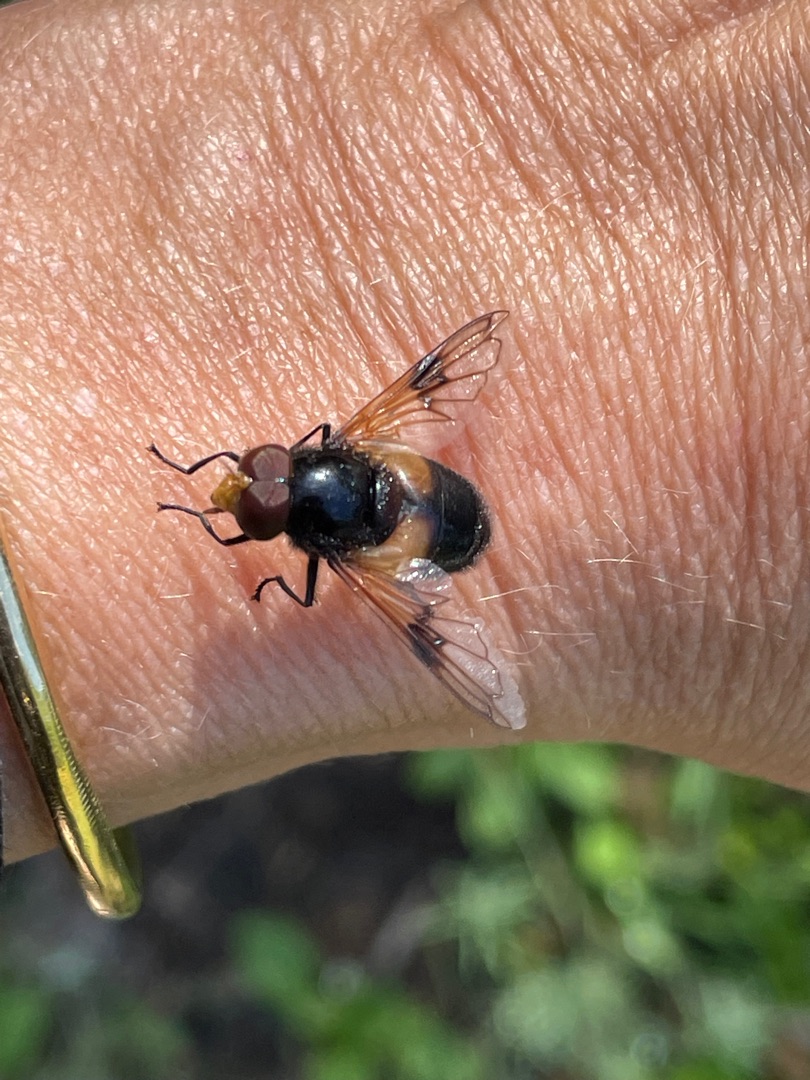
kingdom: Animalia
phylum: Arthropoda
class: Insecta
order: Diptera
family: Syrphidae
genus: Volucella
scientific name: Volucella pellucens
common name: Hvidbåndet humlesvirreflue
